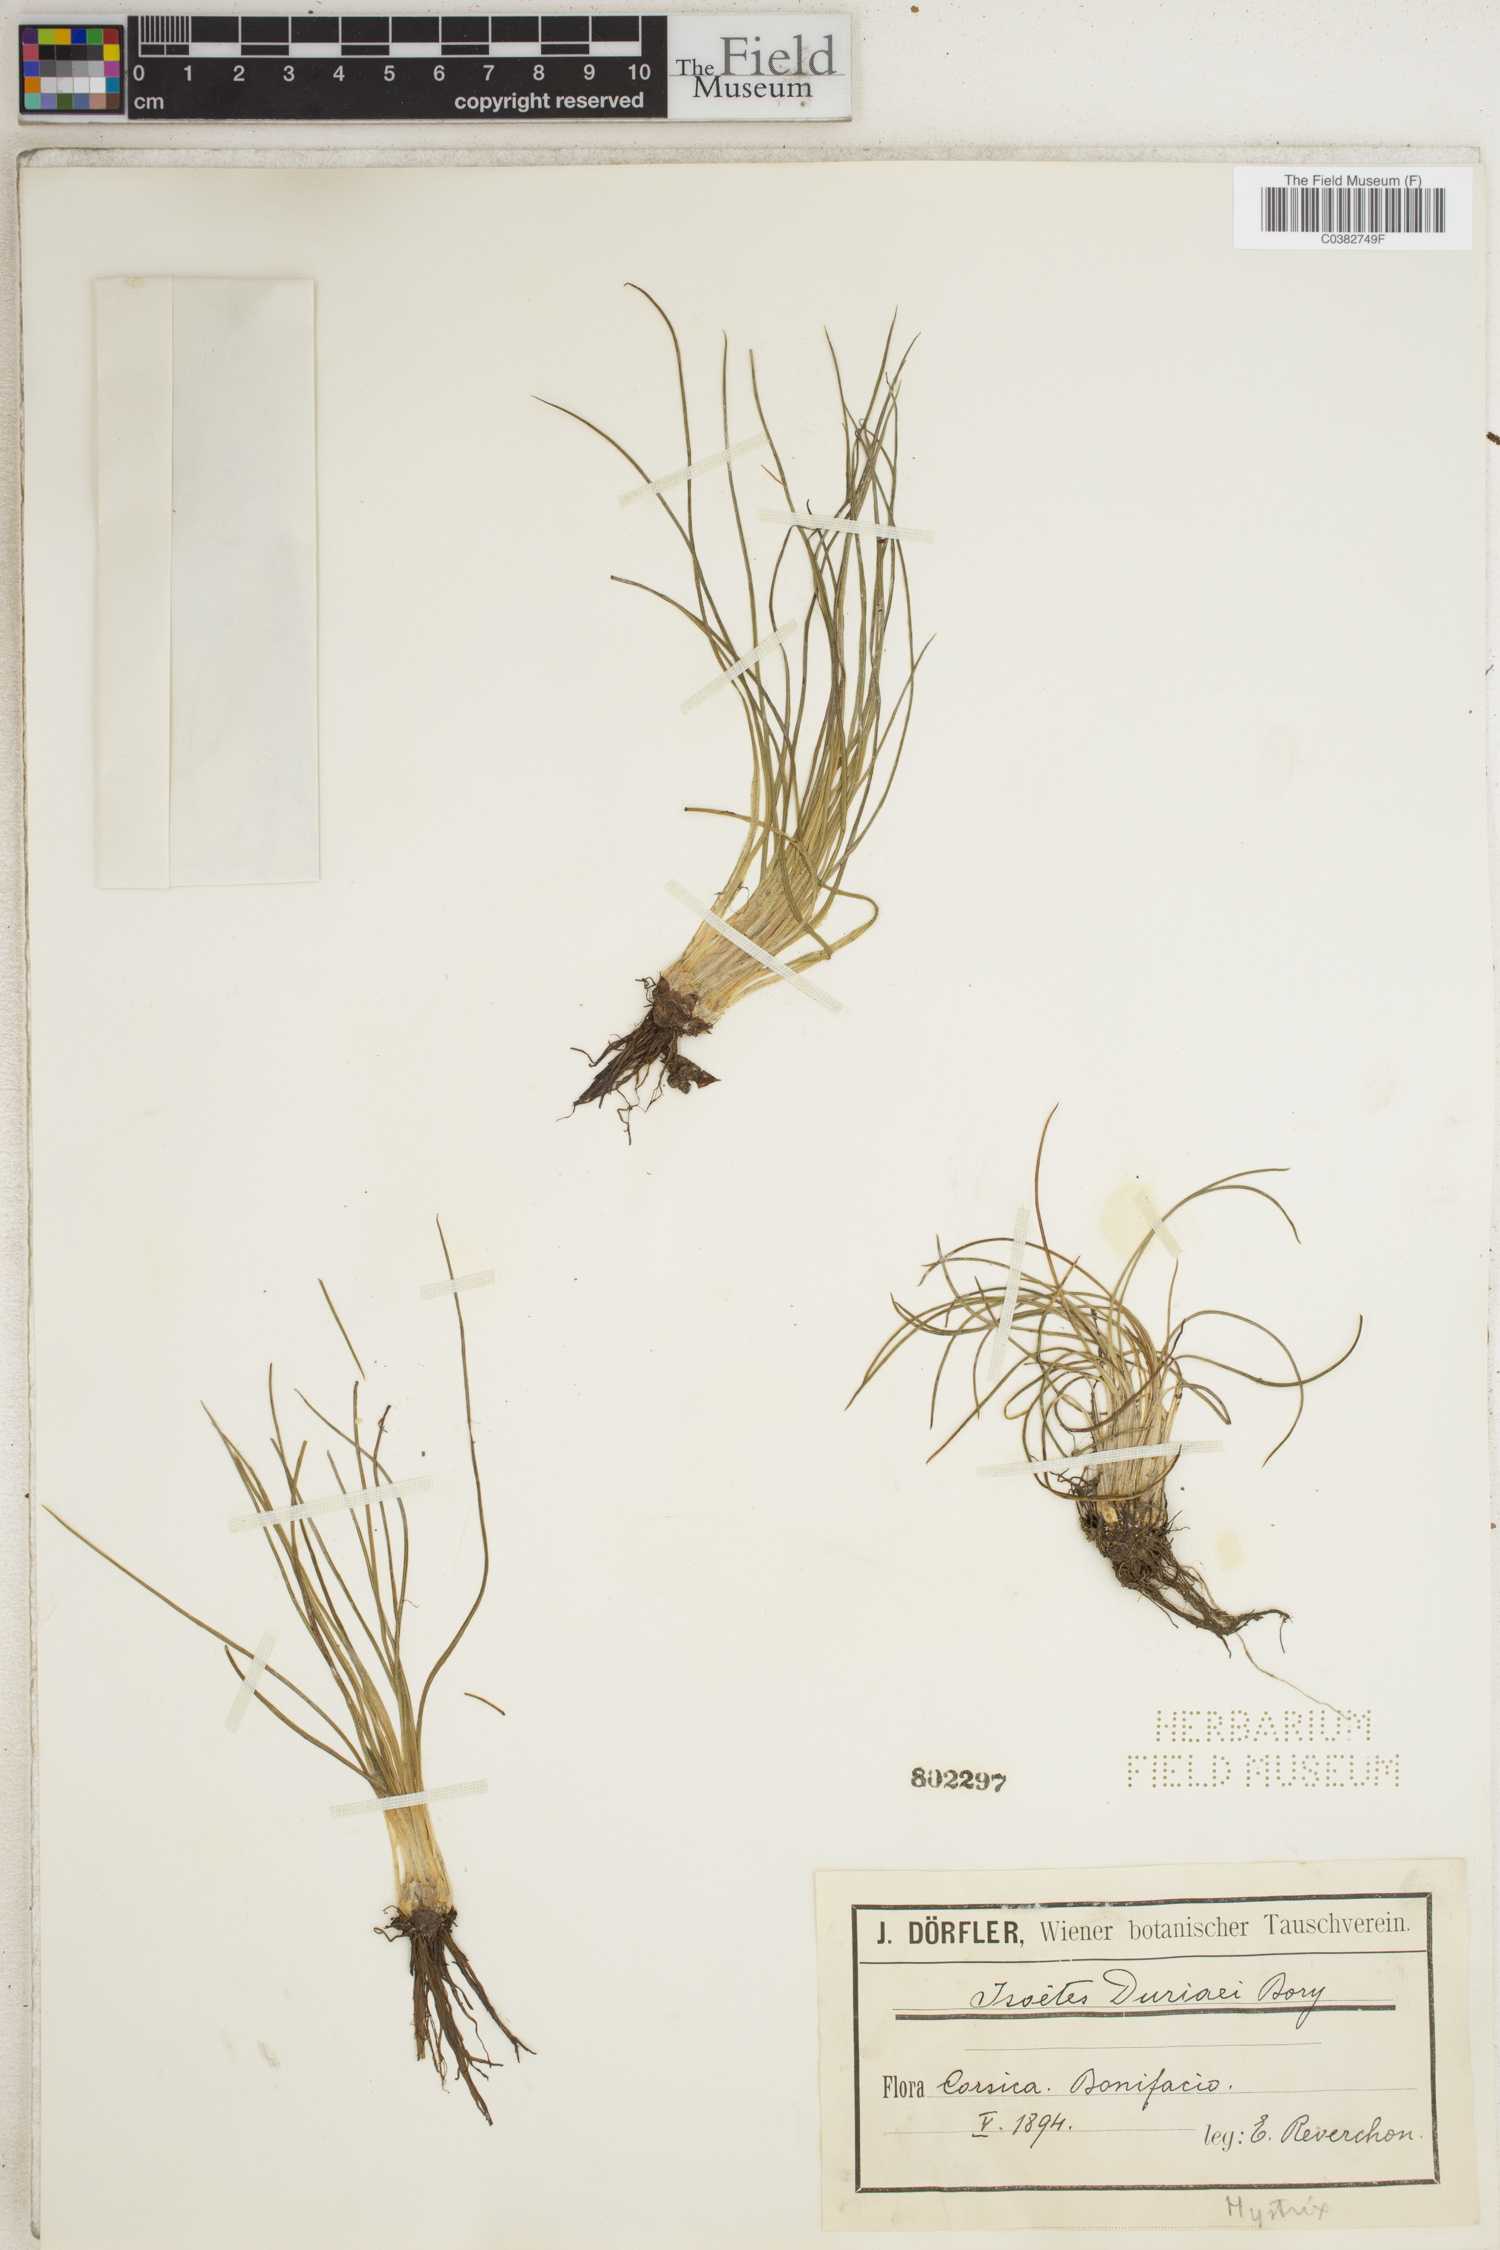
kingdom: Plantae
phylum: Tracheophyta
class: Lycopodiopsida
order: Isoetales
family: Isoetaceae
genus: Isoetes
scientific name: Isoetes duriei
